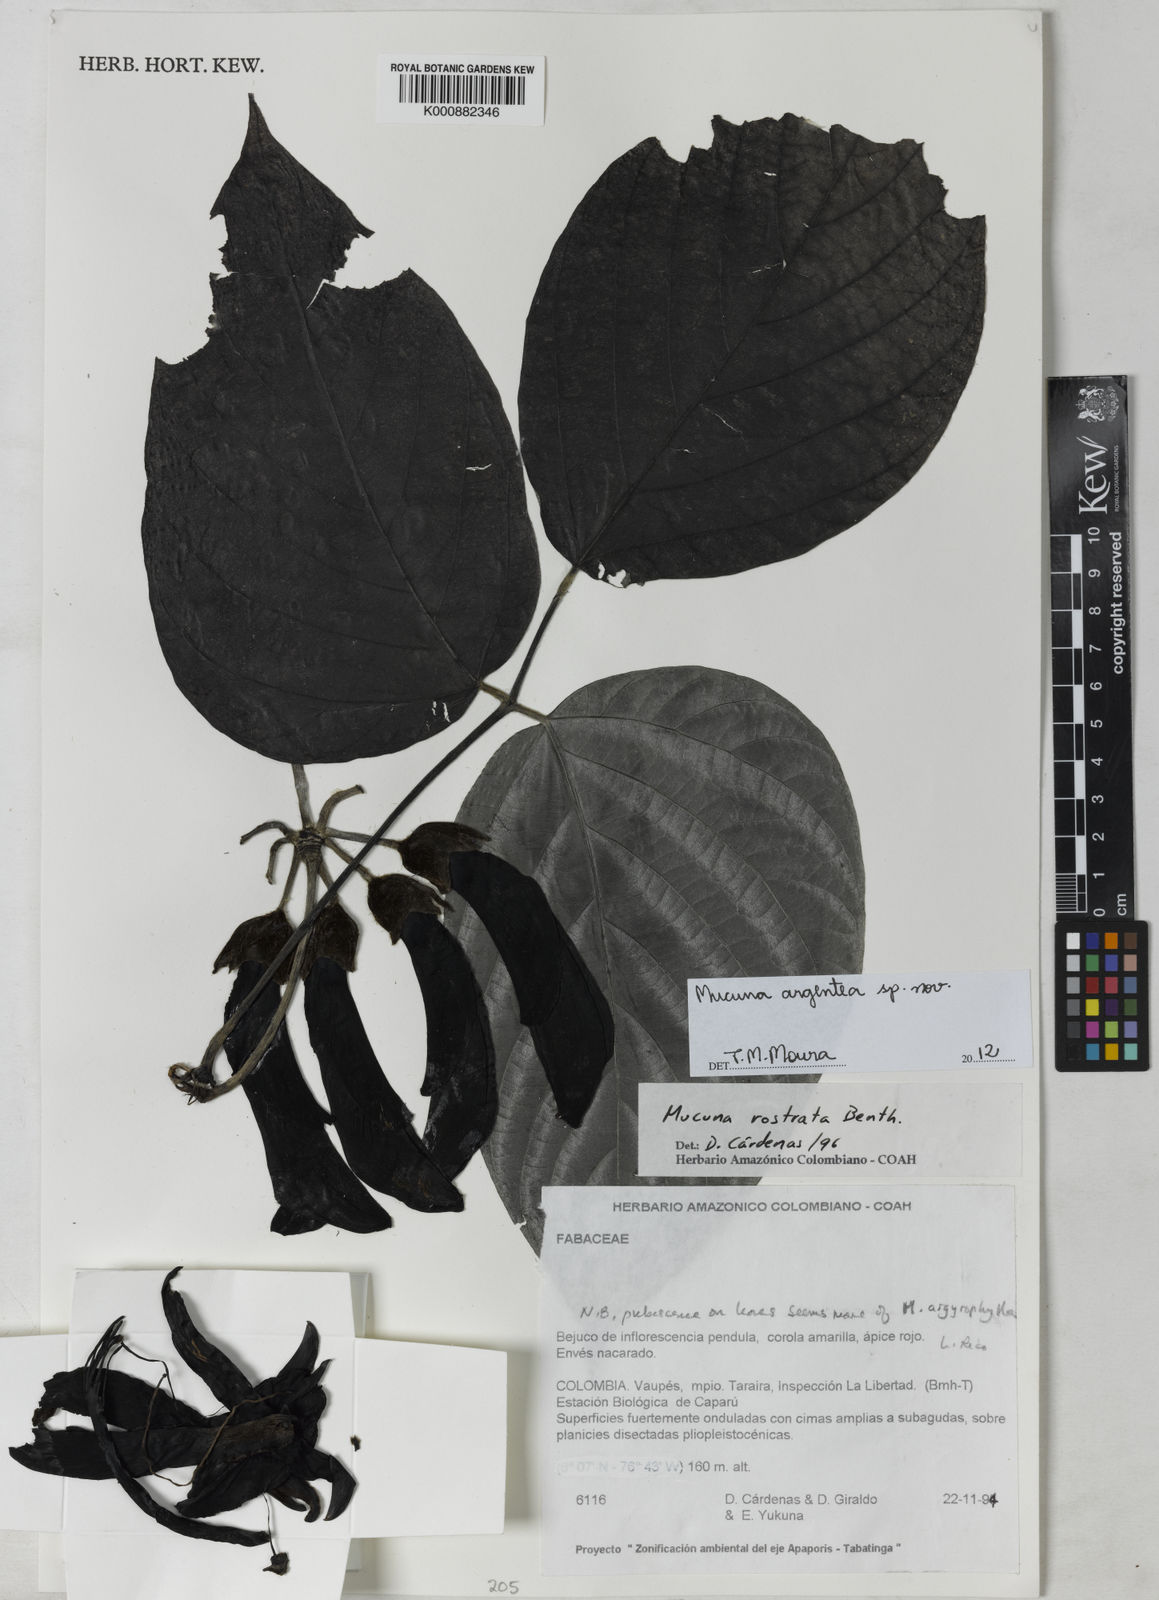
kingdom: Plantae
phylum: Tracheophyta
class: Magnoliopsida
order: Fabales
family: Fabaceae
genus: Mucuna
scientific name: Mucuna argentea
